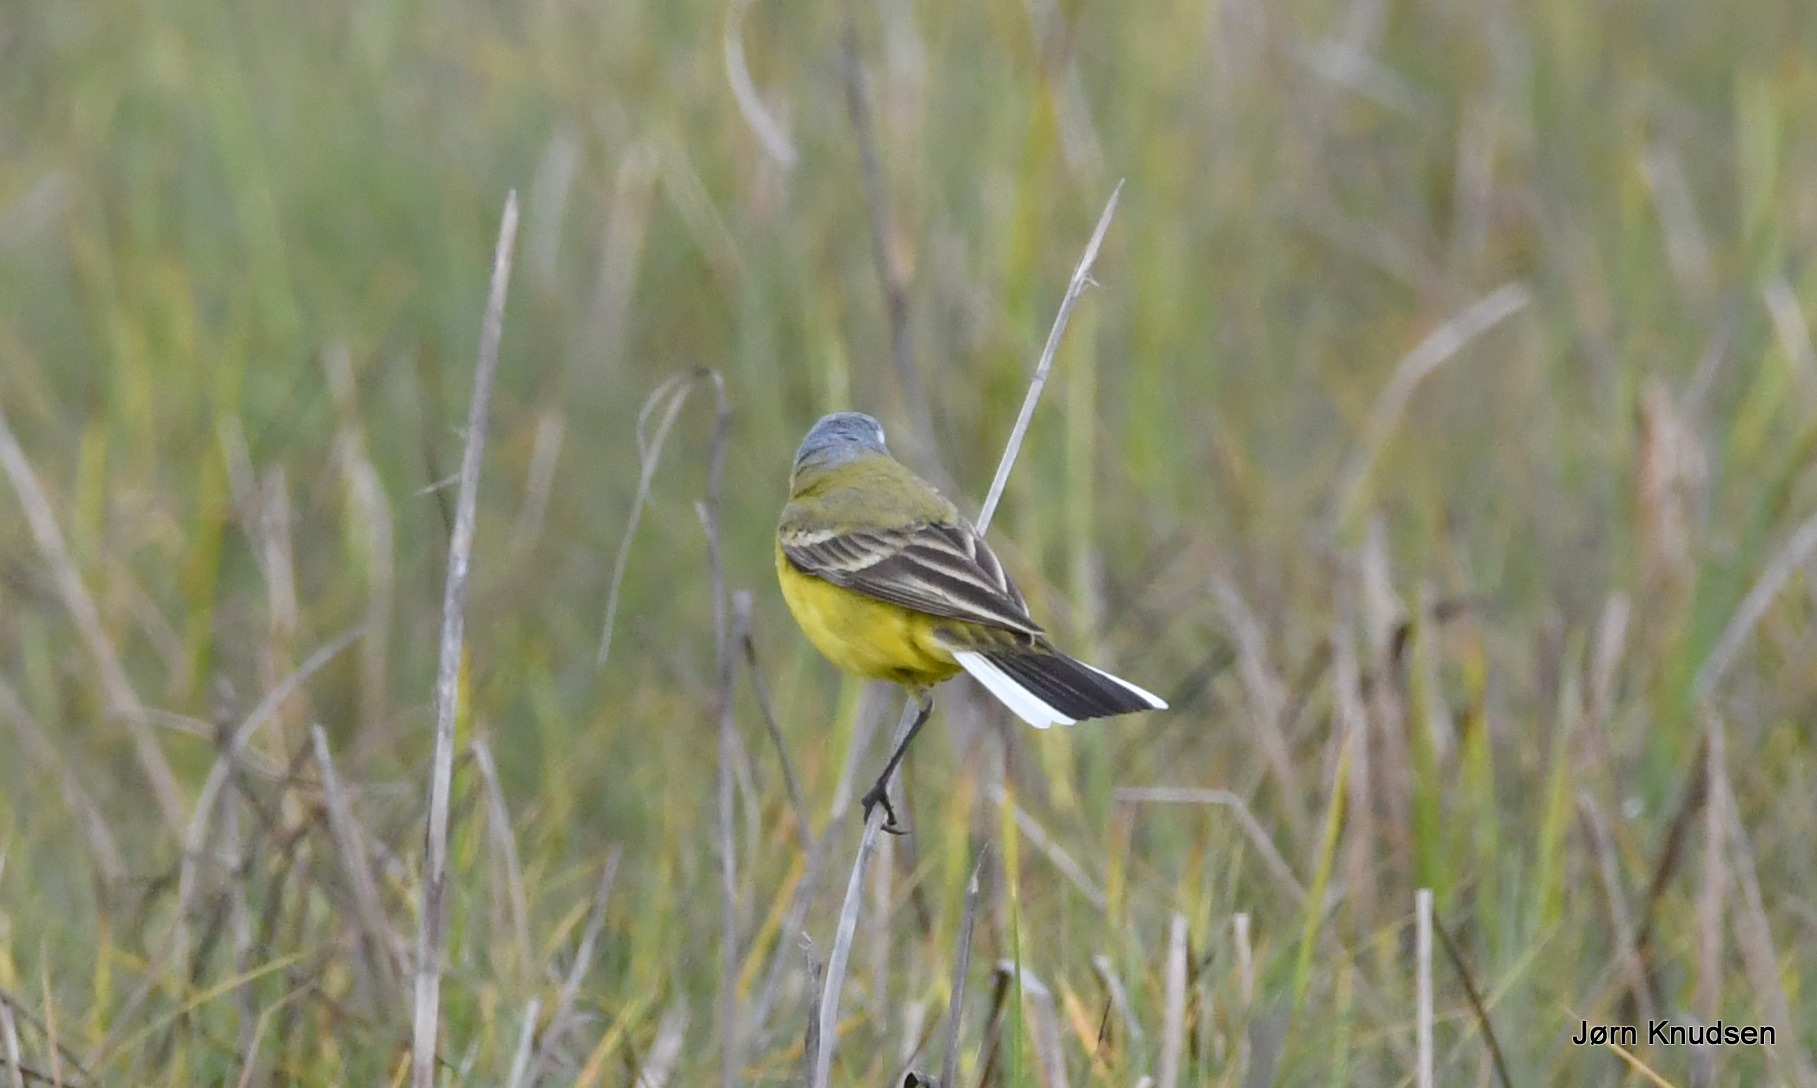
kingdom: Animalia
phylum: Chordata
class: Aves
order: Passeriformes
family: Motacillidae
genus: Motacilla
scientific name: Motacilla flava
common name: Gul vipstjert
